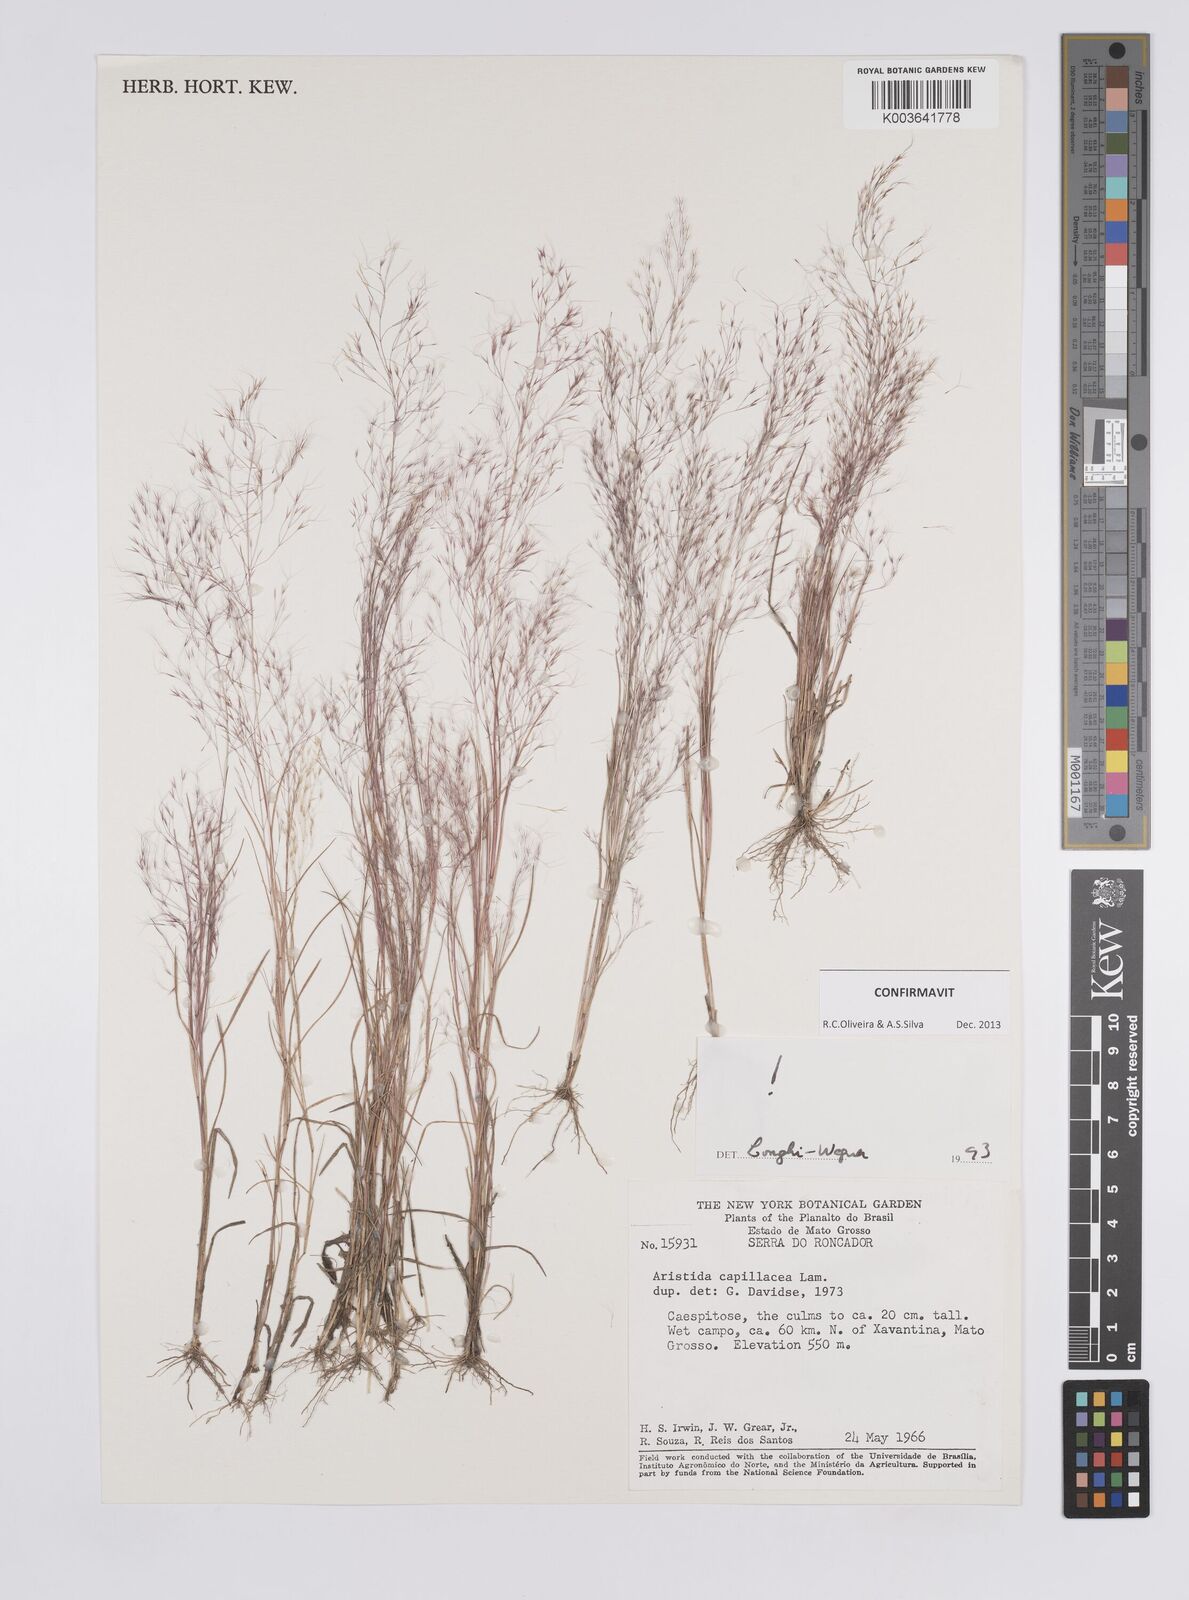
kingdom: Plantae
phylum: Tracheophyta
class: Liliopsida
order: Poales
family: Poaceae
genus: Aristida
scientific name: Aristida capillacea
